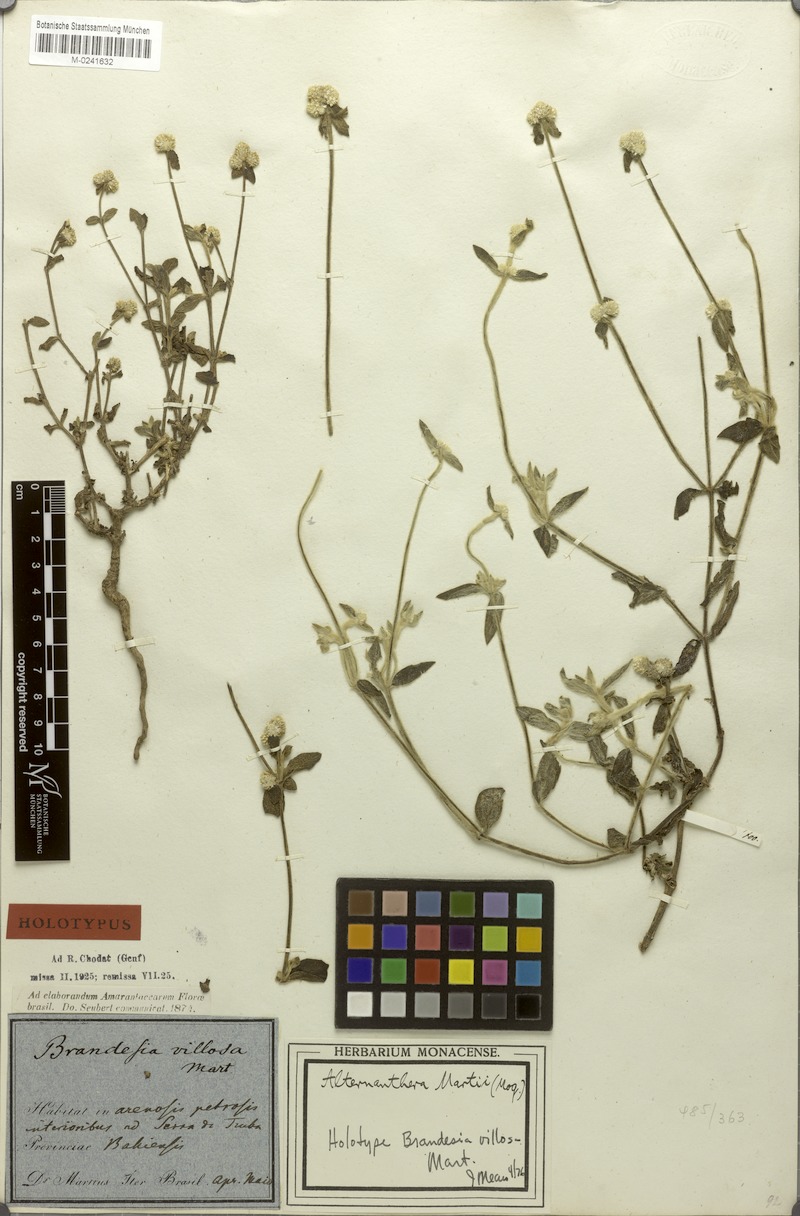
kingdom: Plantae
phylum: Tracheophyta
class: Magnoliopsida
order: Caryophyllales
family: Amaranthaceae
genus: Alternanthera
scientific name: Alternanthera martii
